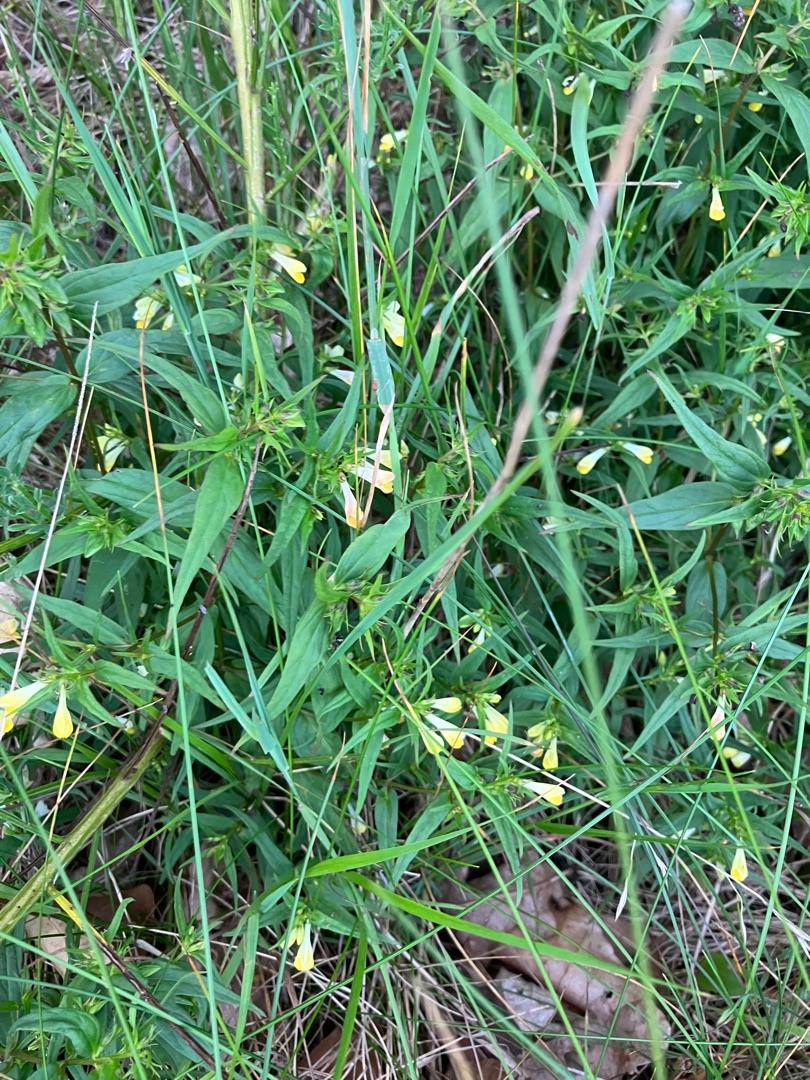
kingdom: Plantae
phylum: Tracheophyta
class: Magnoliopsida
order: Lamiales
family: Orobanchaceae
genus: Melampyrum
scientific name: Melampyrum pratense
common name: Almindelig kohvede
